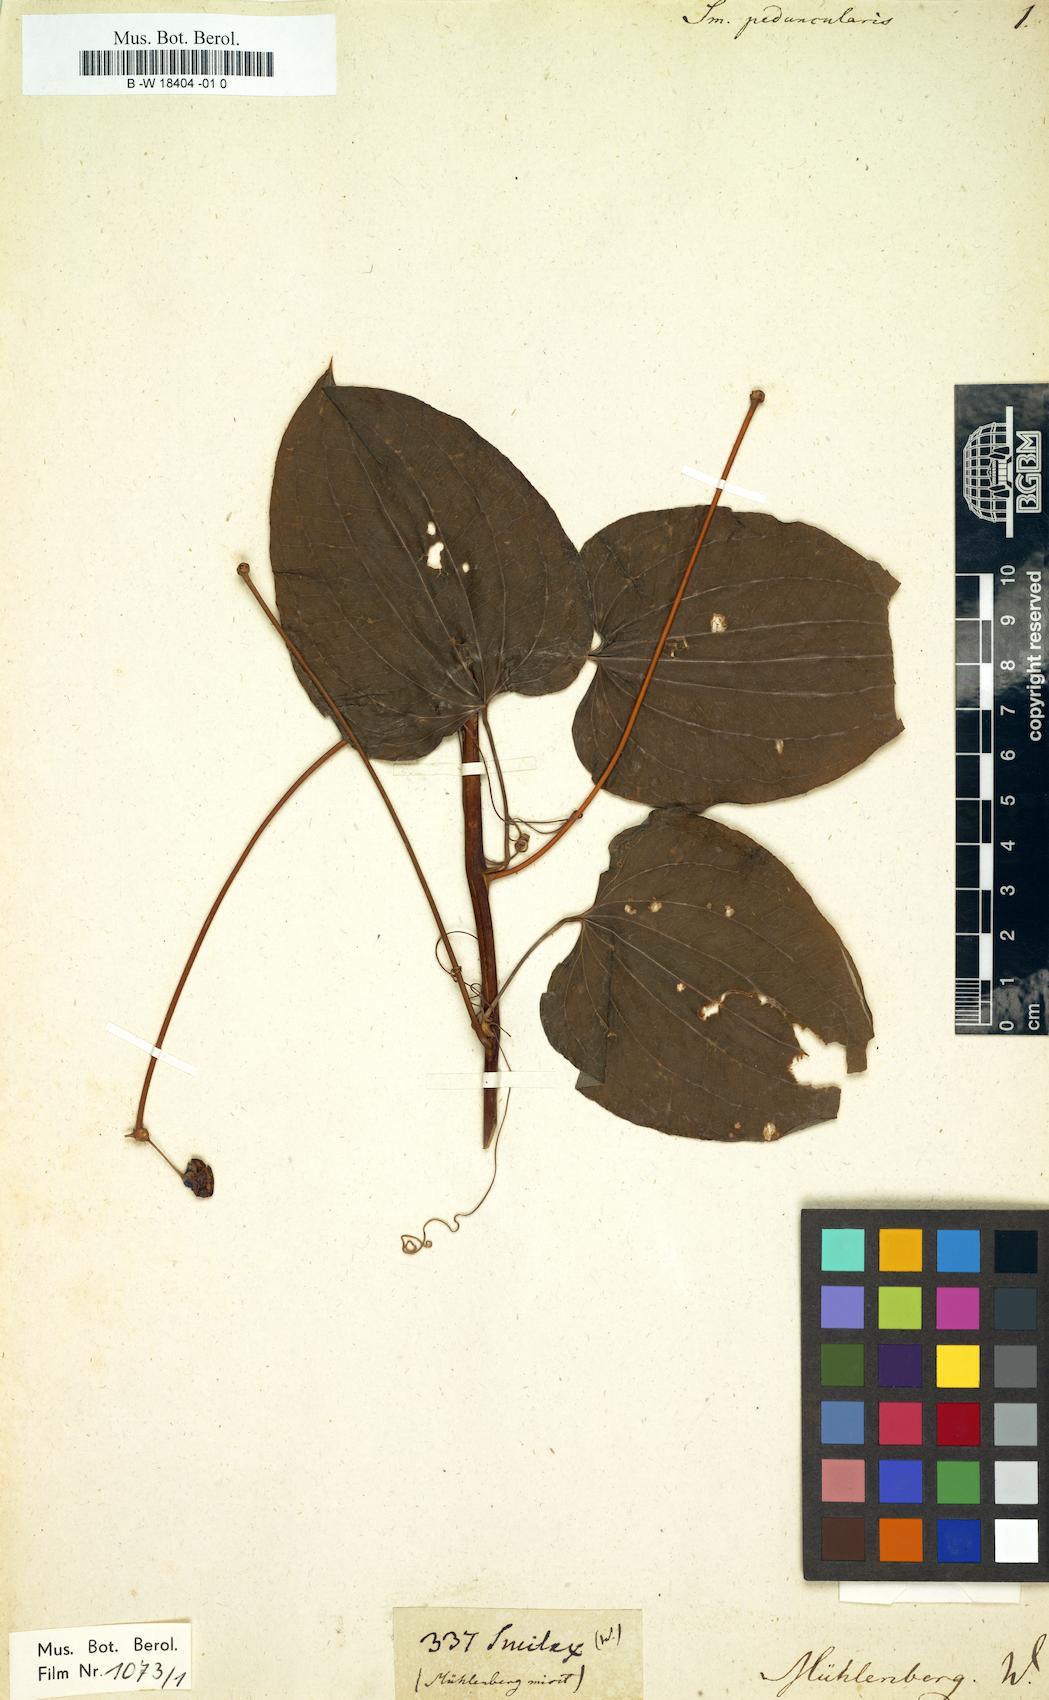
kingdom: Plantae
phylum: Tracheophyta
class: Liliopsida
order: Liliales
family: Smilacaceae
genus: Smilax
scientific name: Smilax
